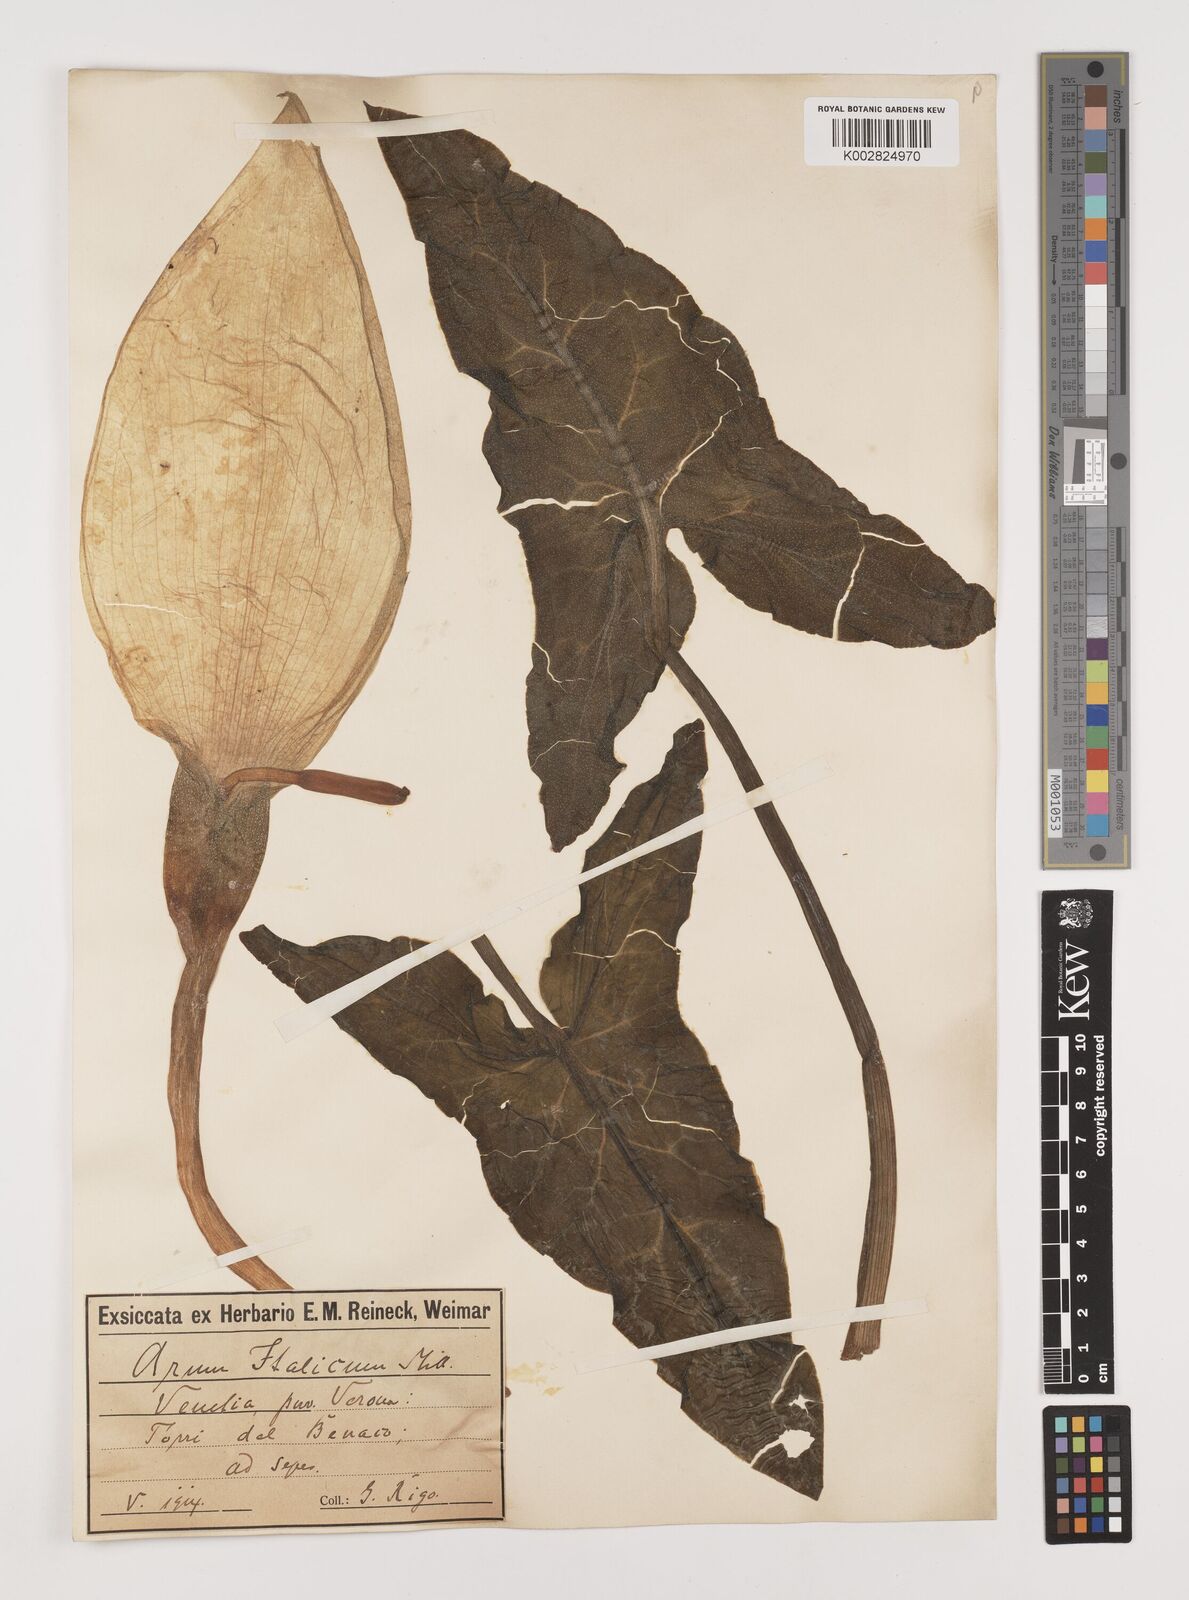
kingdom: Plantae
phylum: Tracheophyta
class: Liliopsida
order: Alismatales
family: Araceae
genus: Arum
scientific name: Arum italicum
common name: Italian lords-and-ladies
